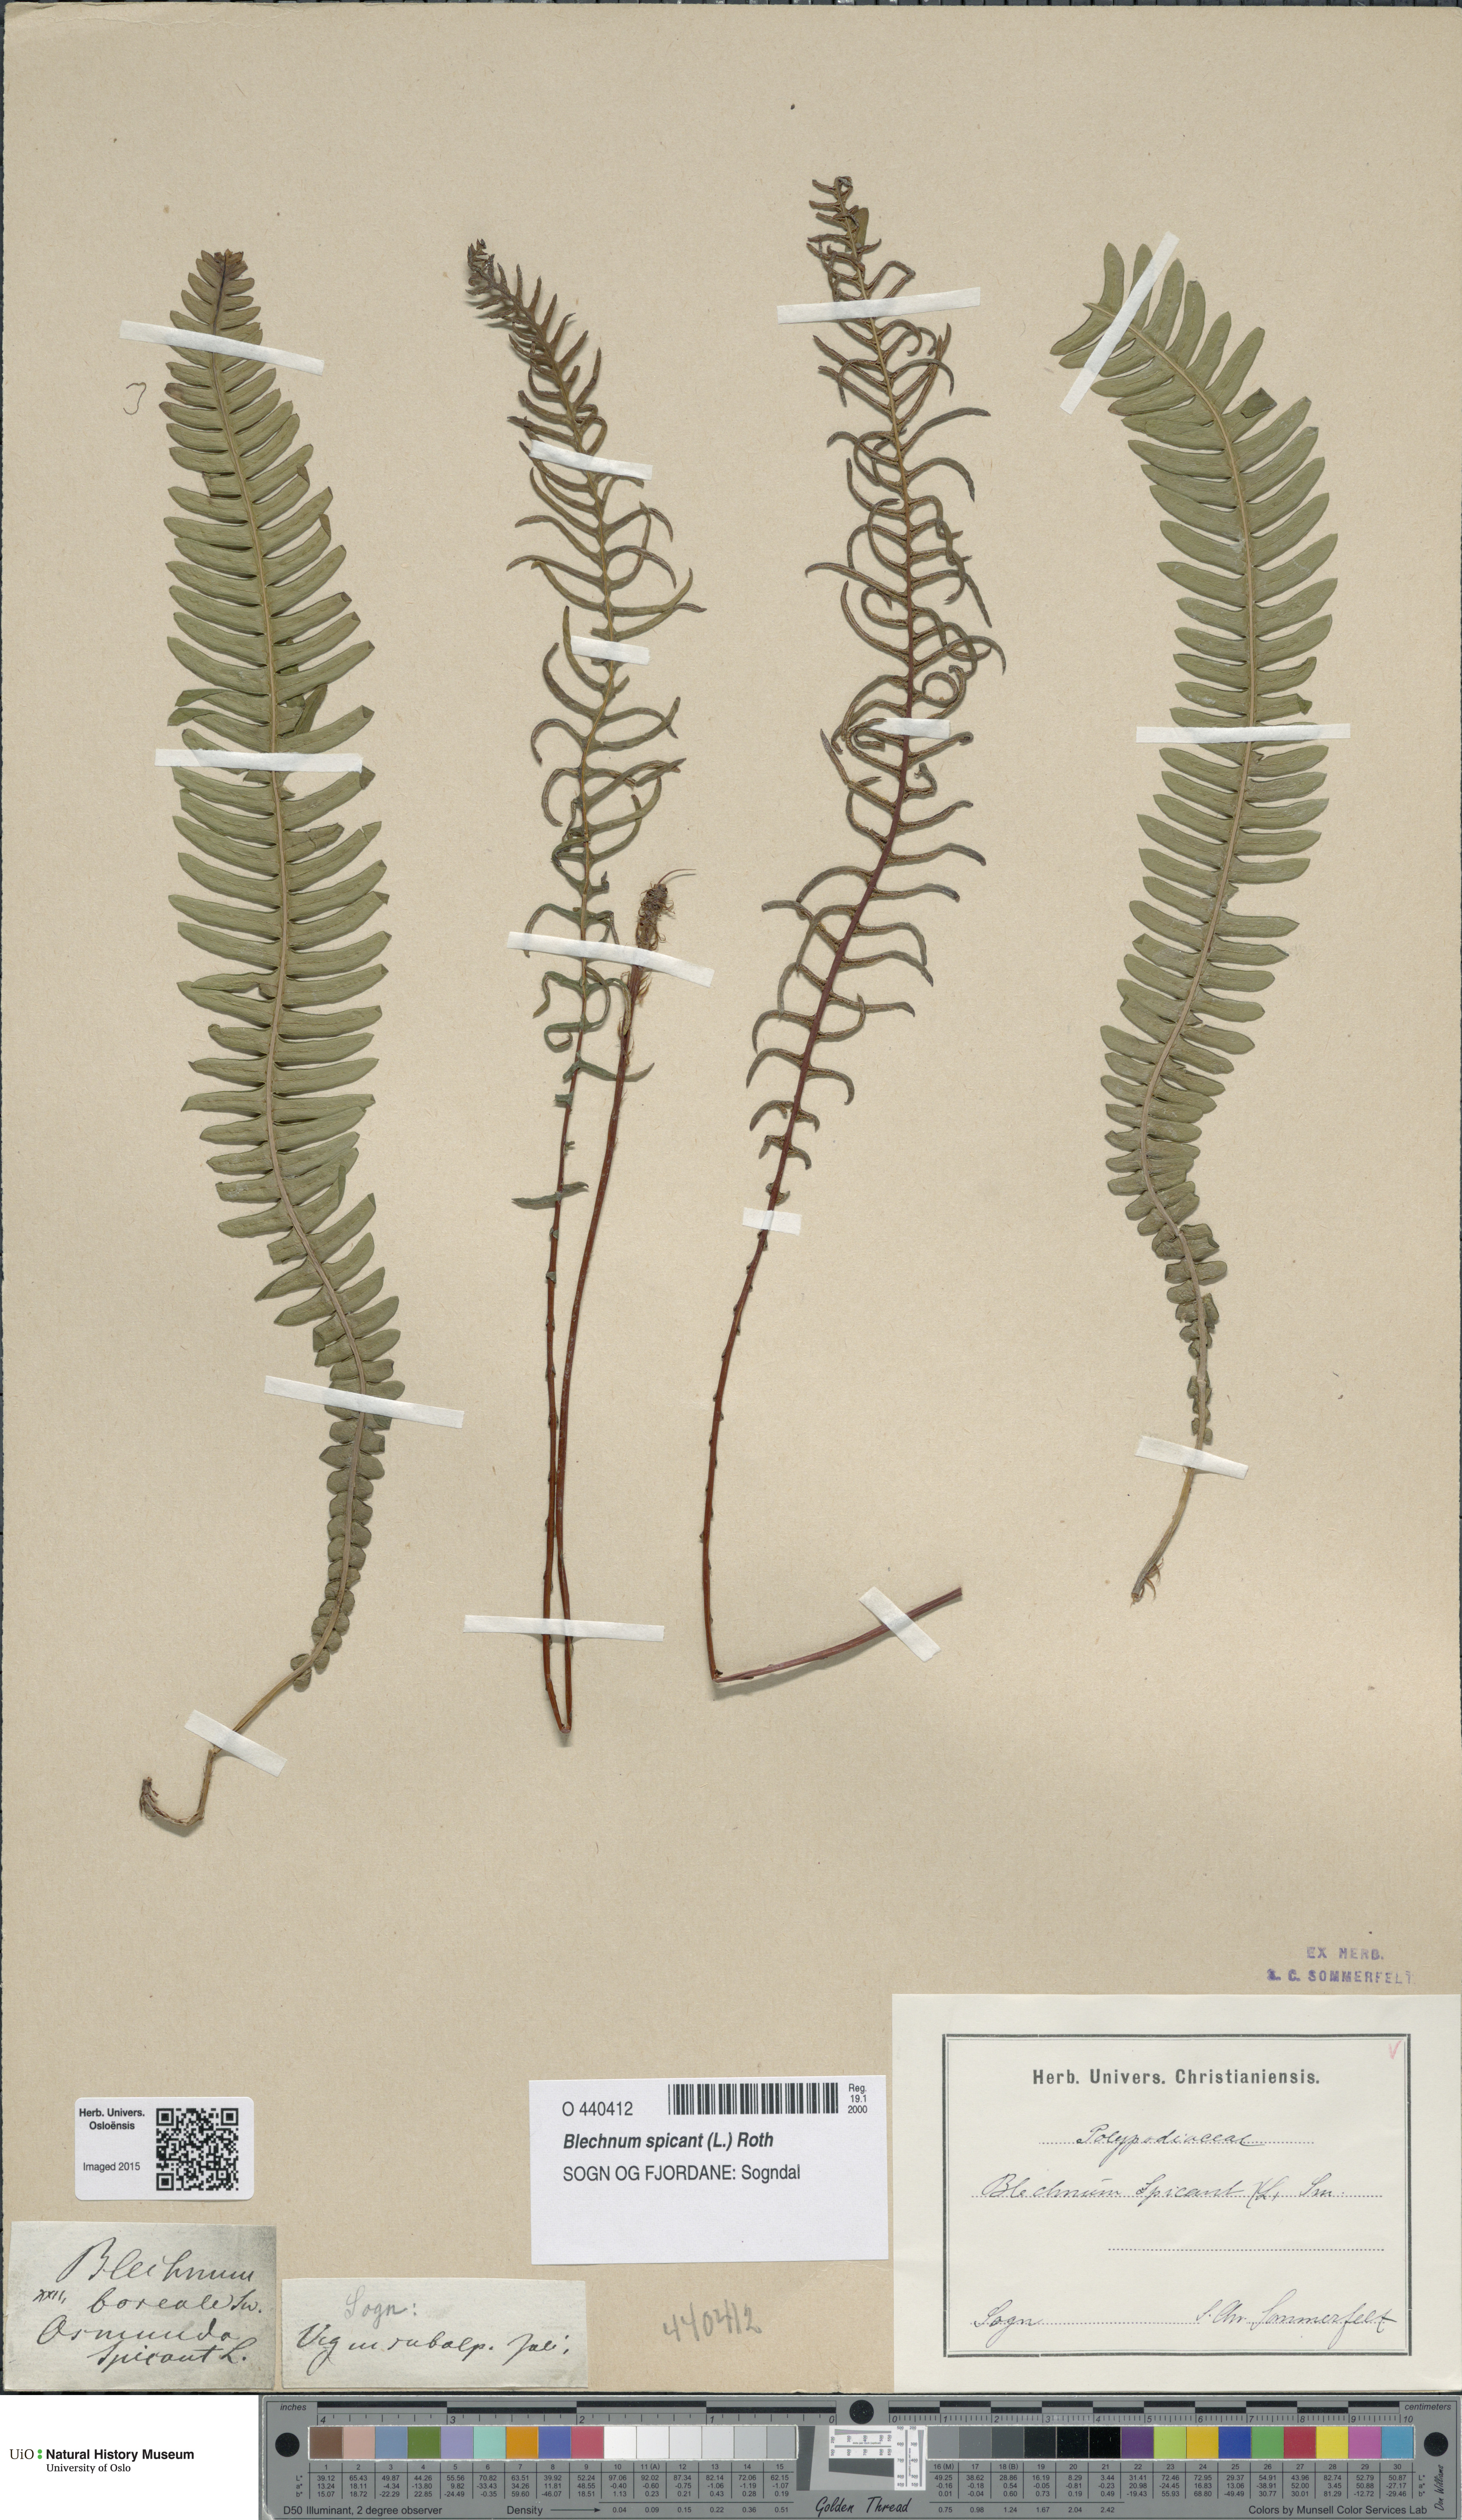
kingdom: Plantae
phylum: Tracheophyta
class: Polypodiopsida
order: Polypodiales
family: Blechnaceae
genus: Struthiopteris
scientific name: Struthiopteris spicant
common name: Deer fern
